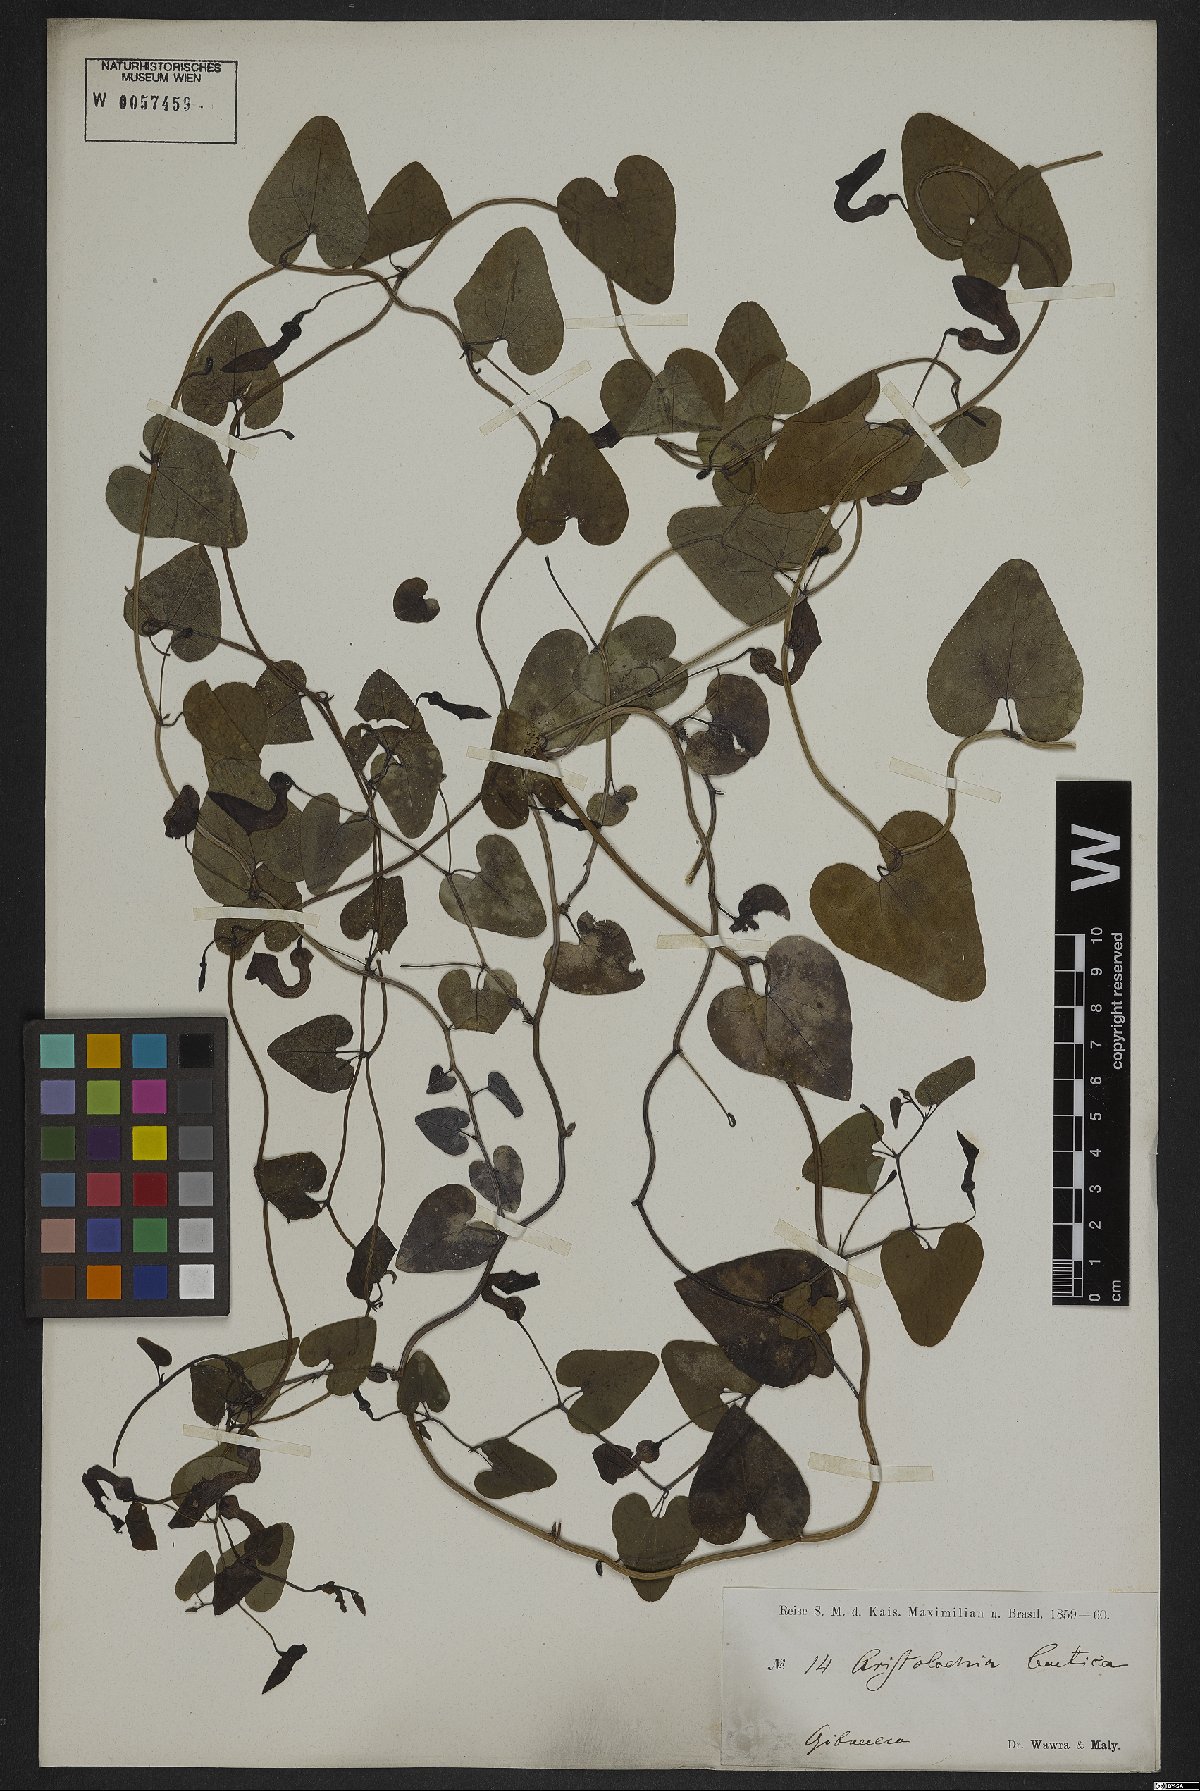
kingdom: Plantae
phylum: Tracheophyta
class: Magnoliopsida
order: Piperales
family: Aristolochiaceae
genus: Aristolochia
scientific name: Aristolochia baetica
